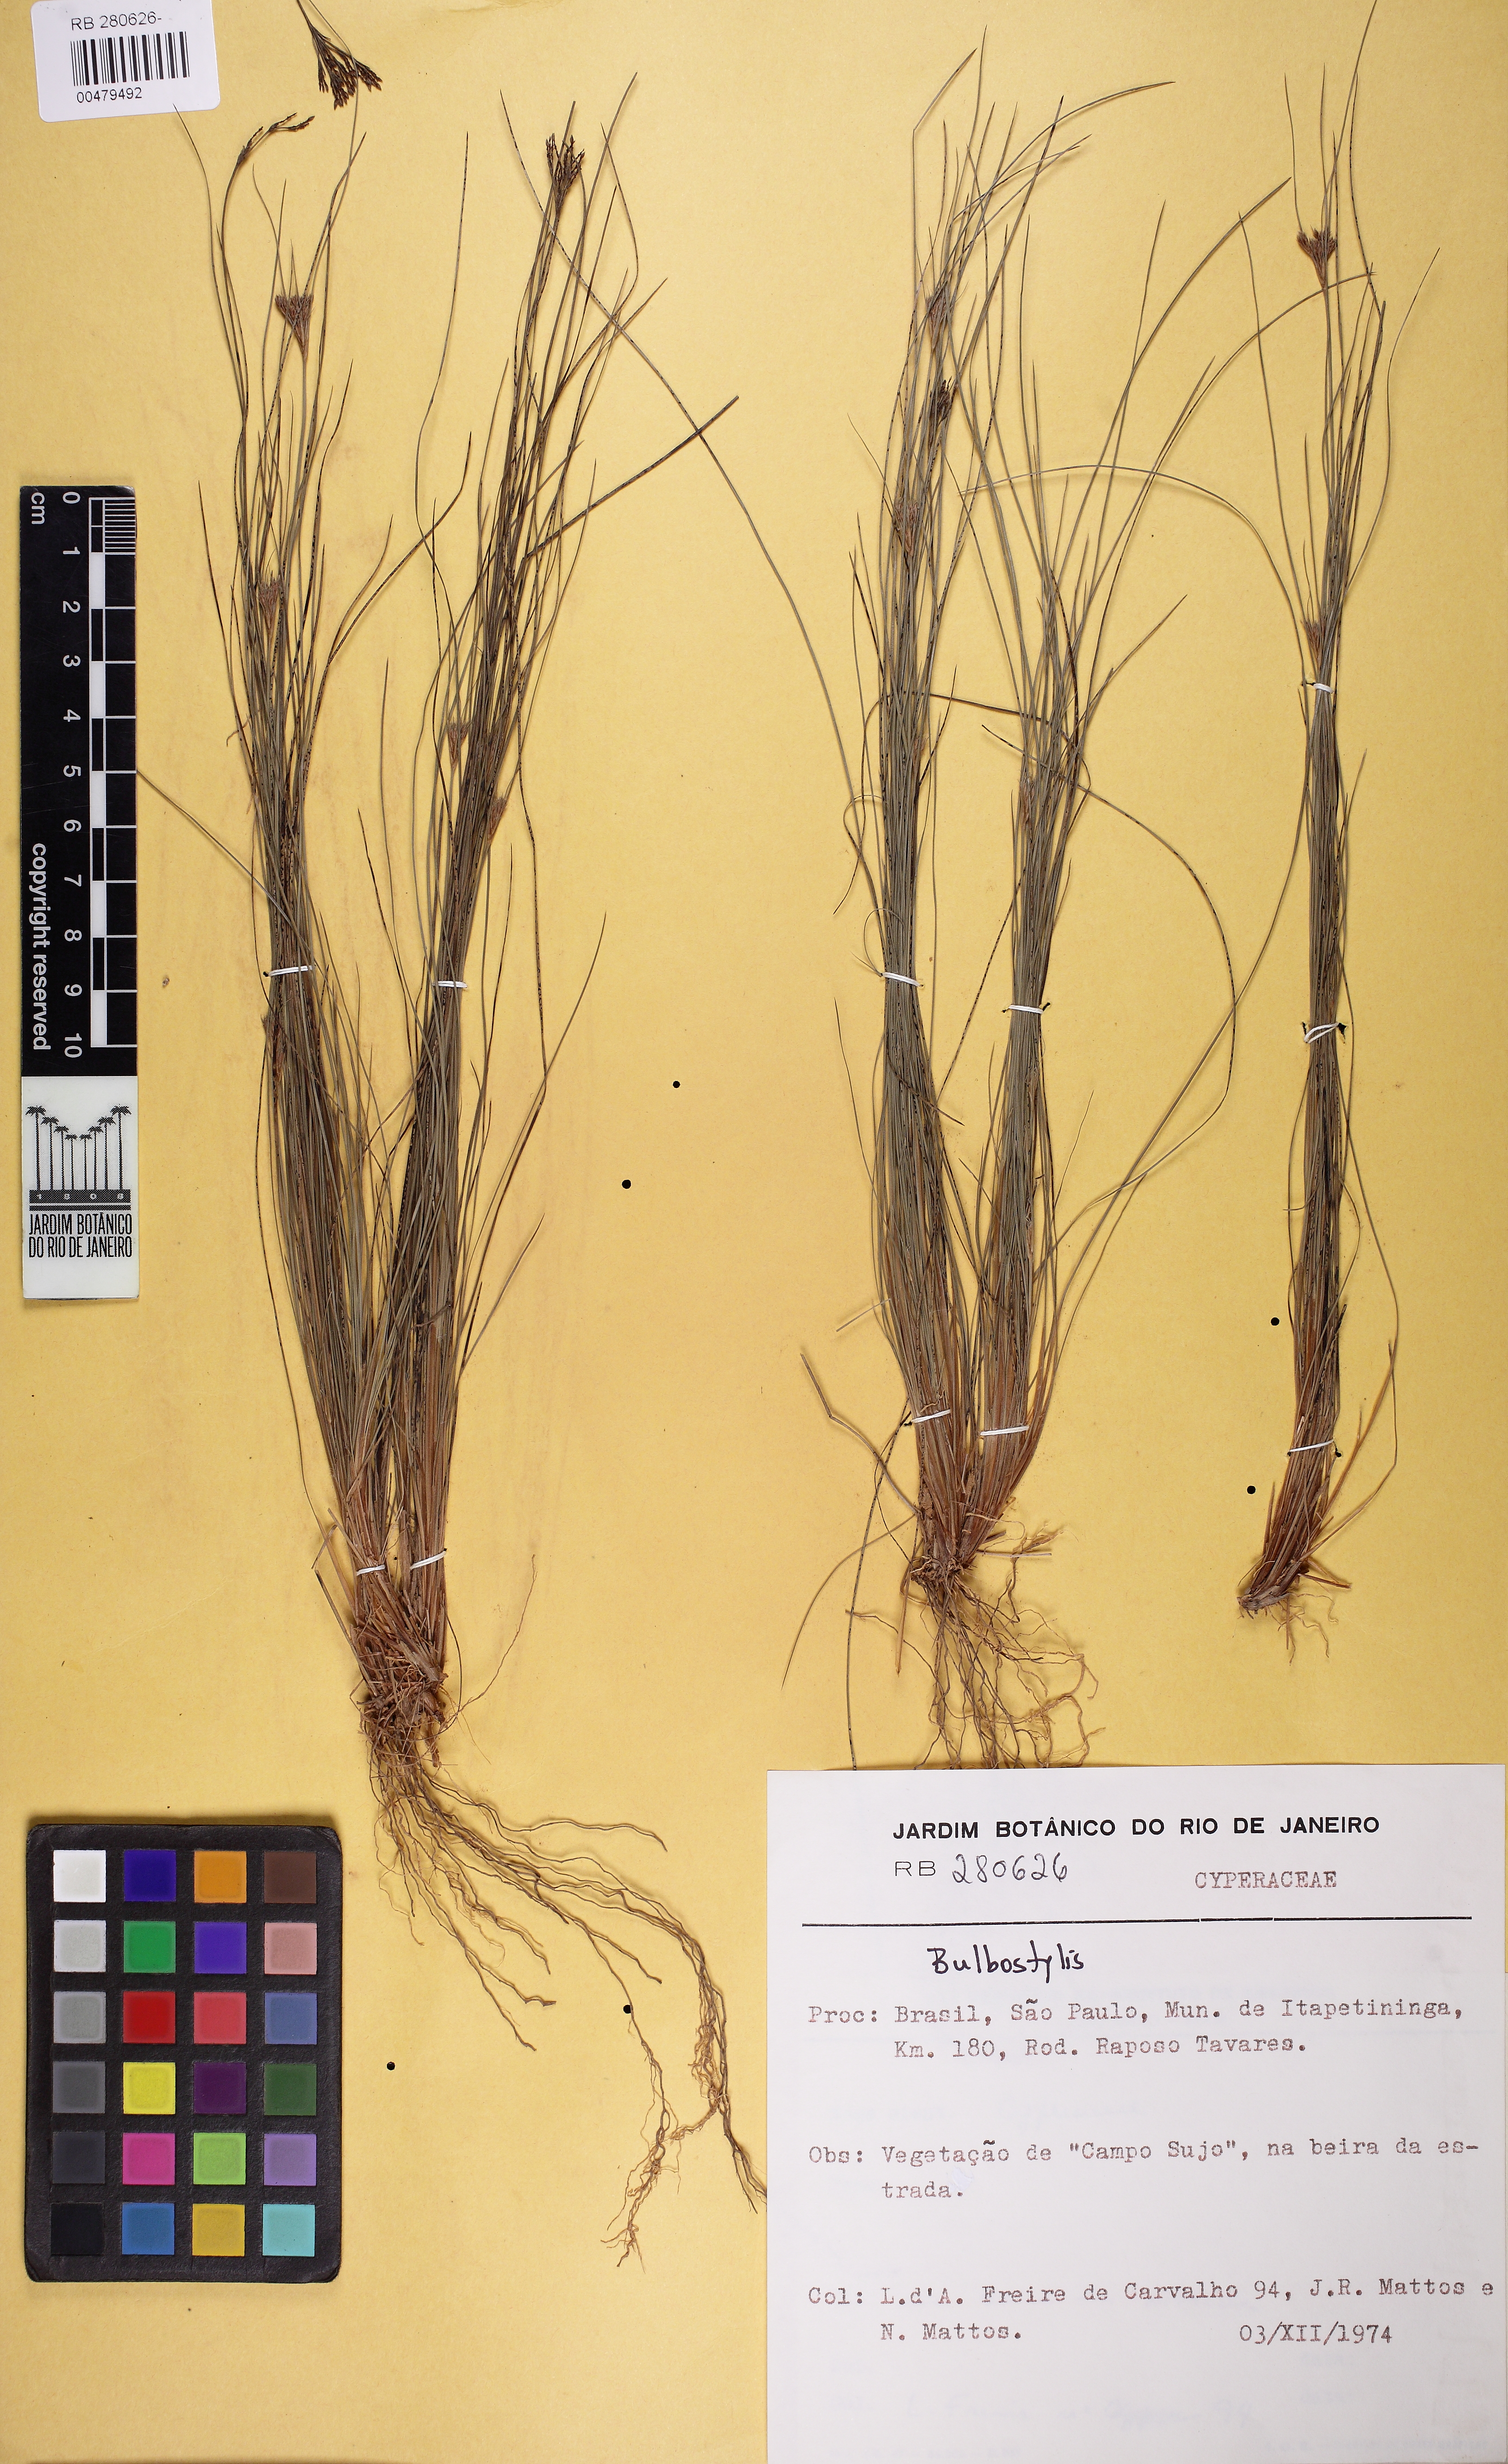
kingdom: Plantae
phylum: Tracheophyta
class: Liliopsida
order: Poales
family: Cyperaceae
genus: Bulbostylis
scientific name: Bulbostylis
